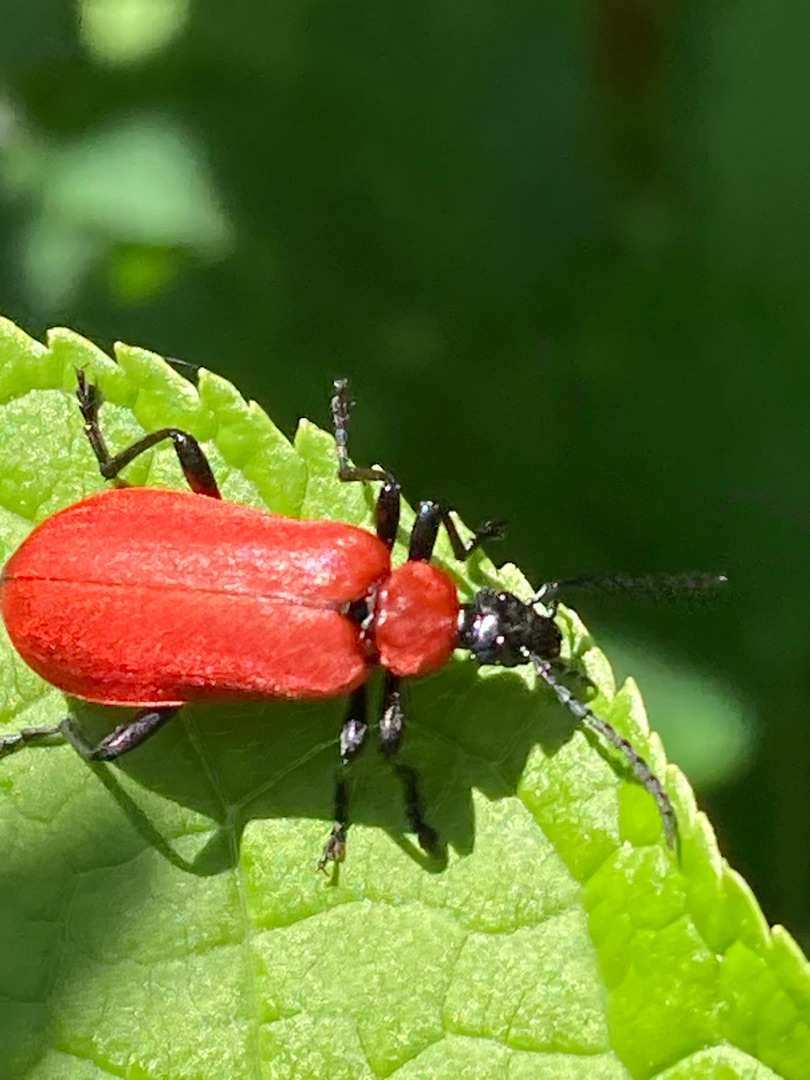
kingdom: Animalia
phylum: Arthropoda
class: Insecta
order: Coleoptera
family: Pyrochroidae
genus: Pyrochroa
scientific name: Pyrochroa coccinea
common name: Sorthovedet kardinalbille
